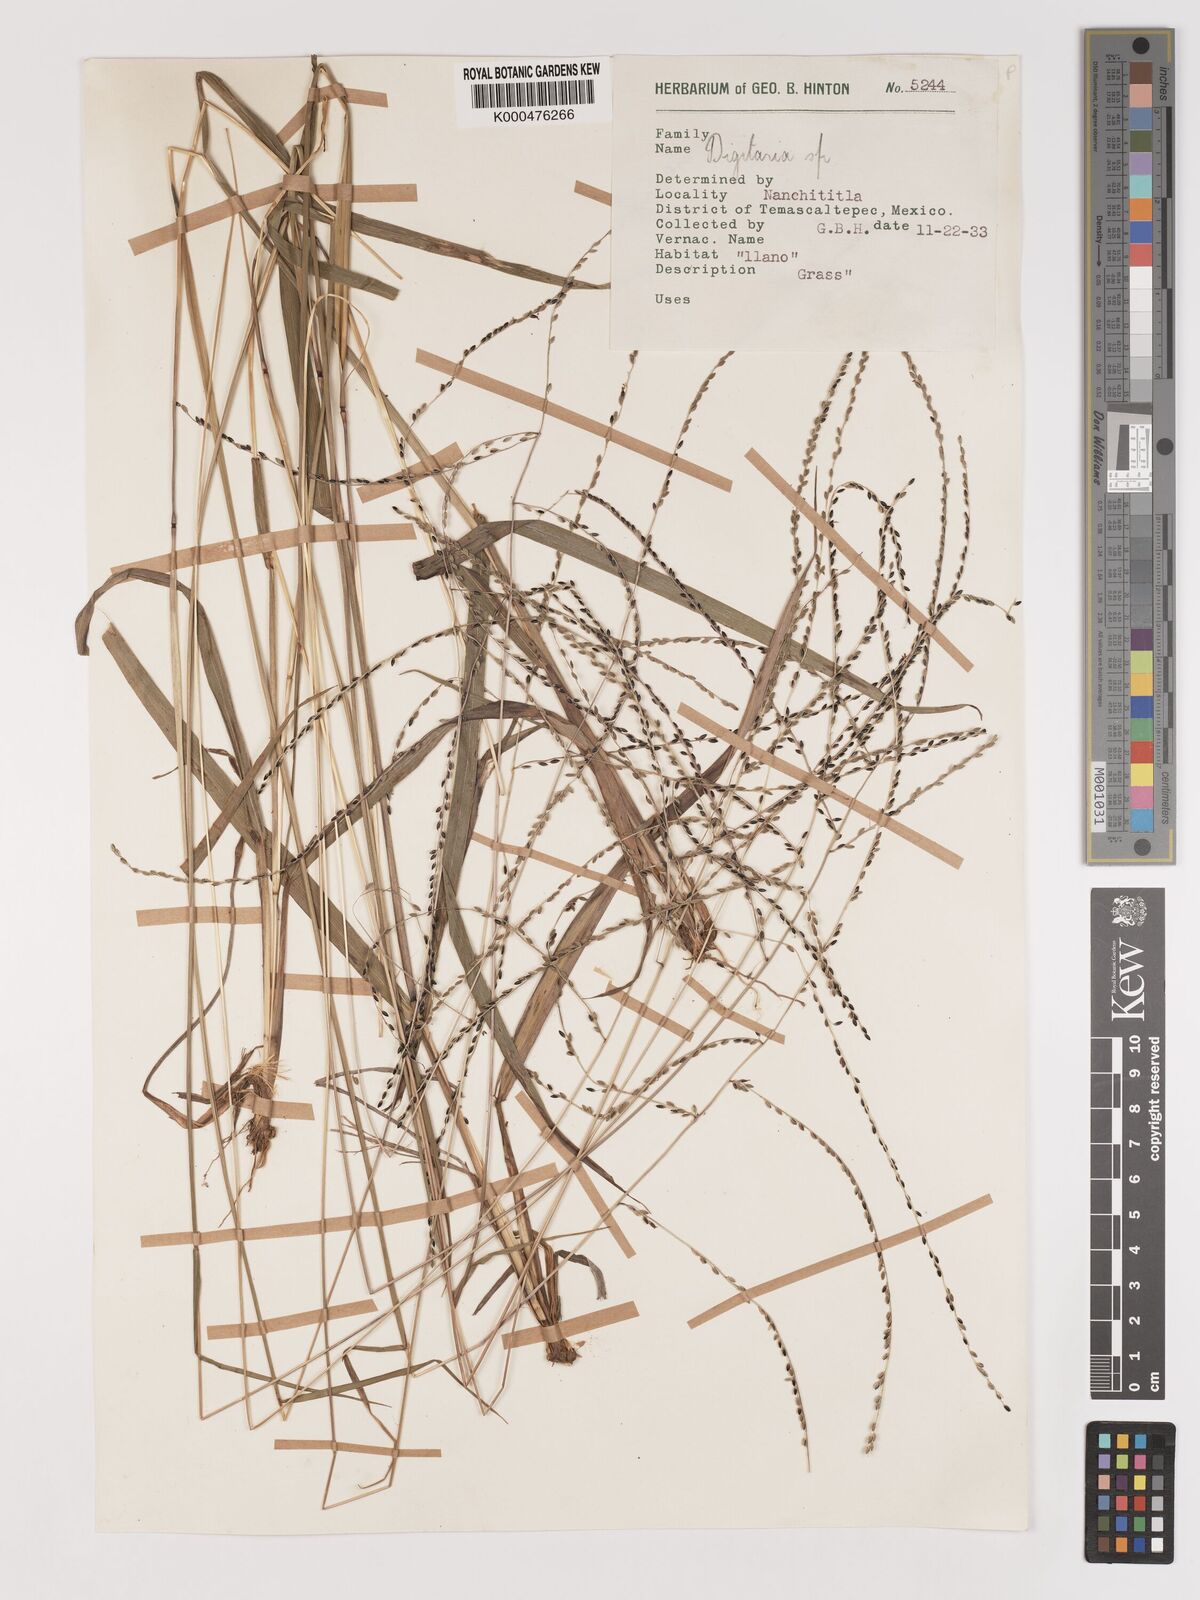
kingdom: Plantae
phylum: Tracheophyta
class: Liliopsida
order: Poales
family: Poaceae
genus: Digitaria
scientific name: Digitaria curtigluma
